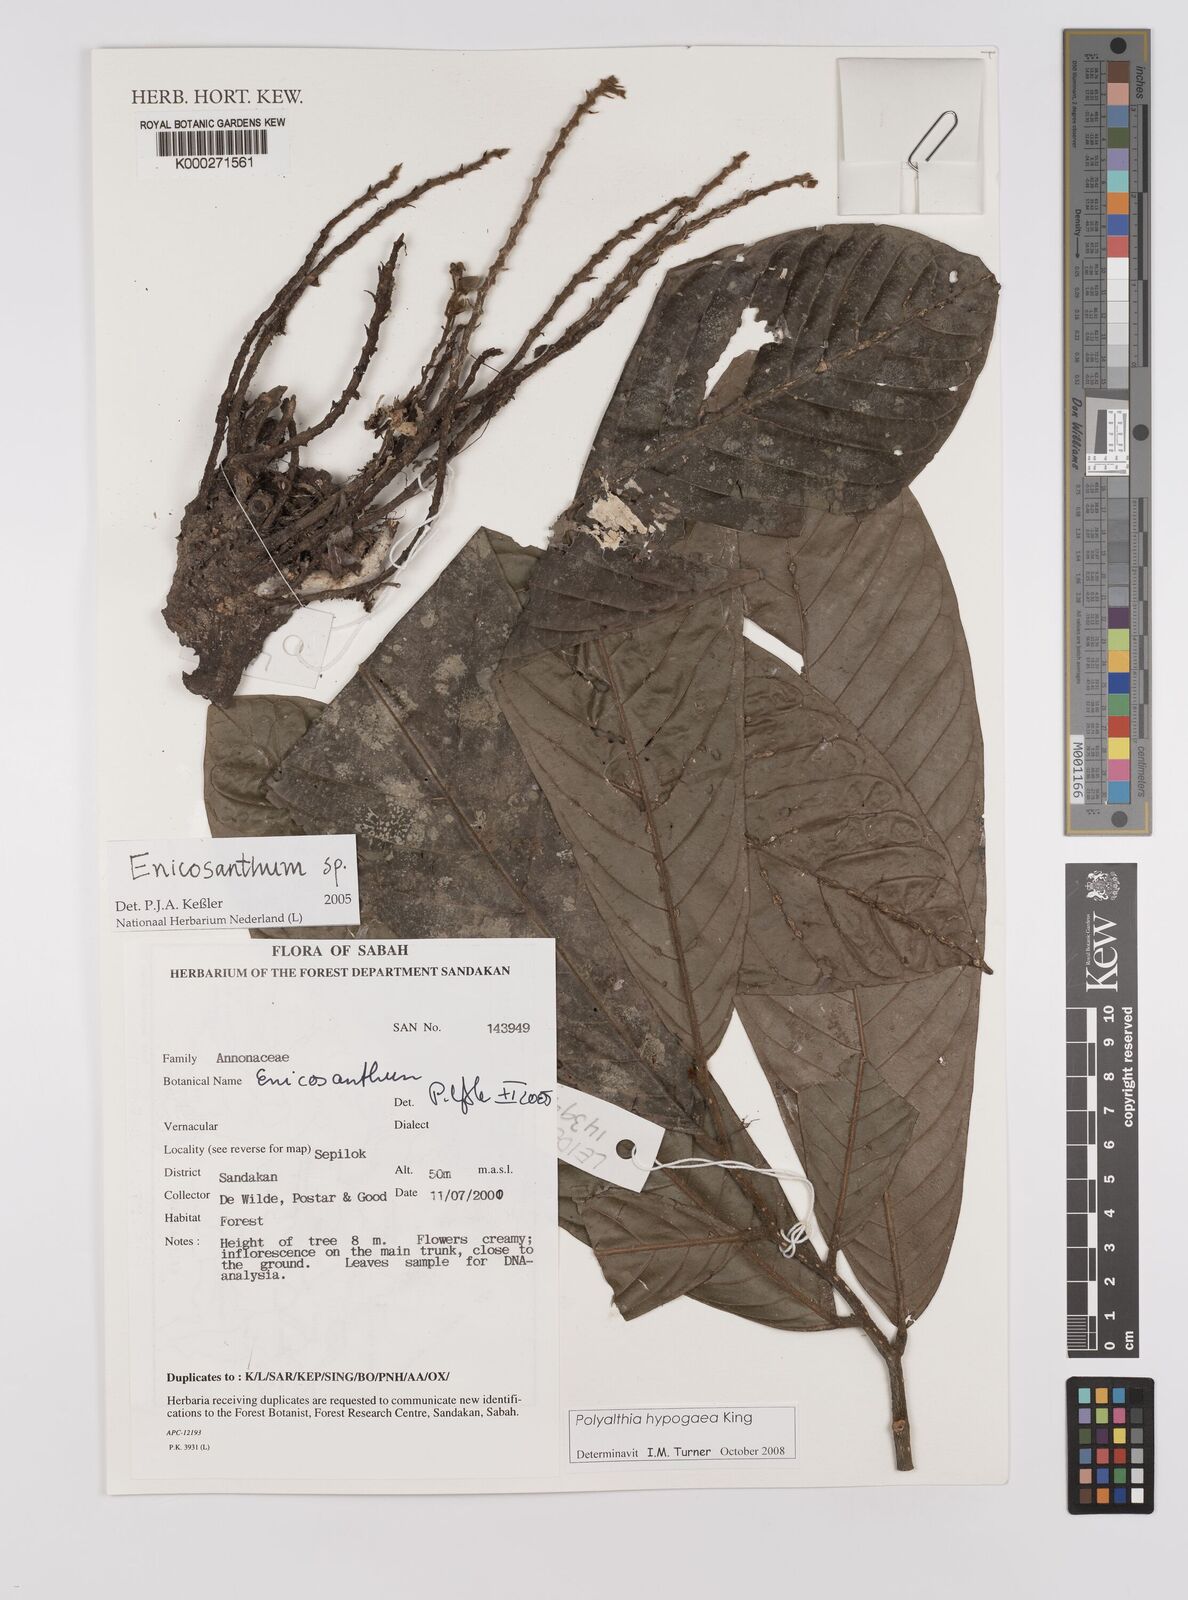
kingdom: Plantae
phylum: Tracheophyta
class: Magnoliopsida
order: Magnoliales
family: Annonaceae
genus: Enicosanthum
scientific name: Enicosanthum
